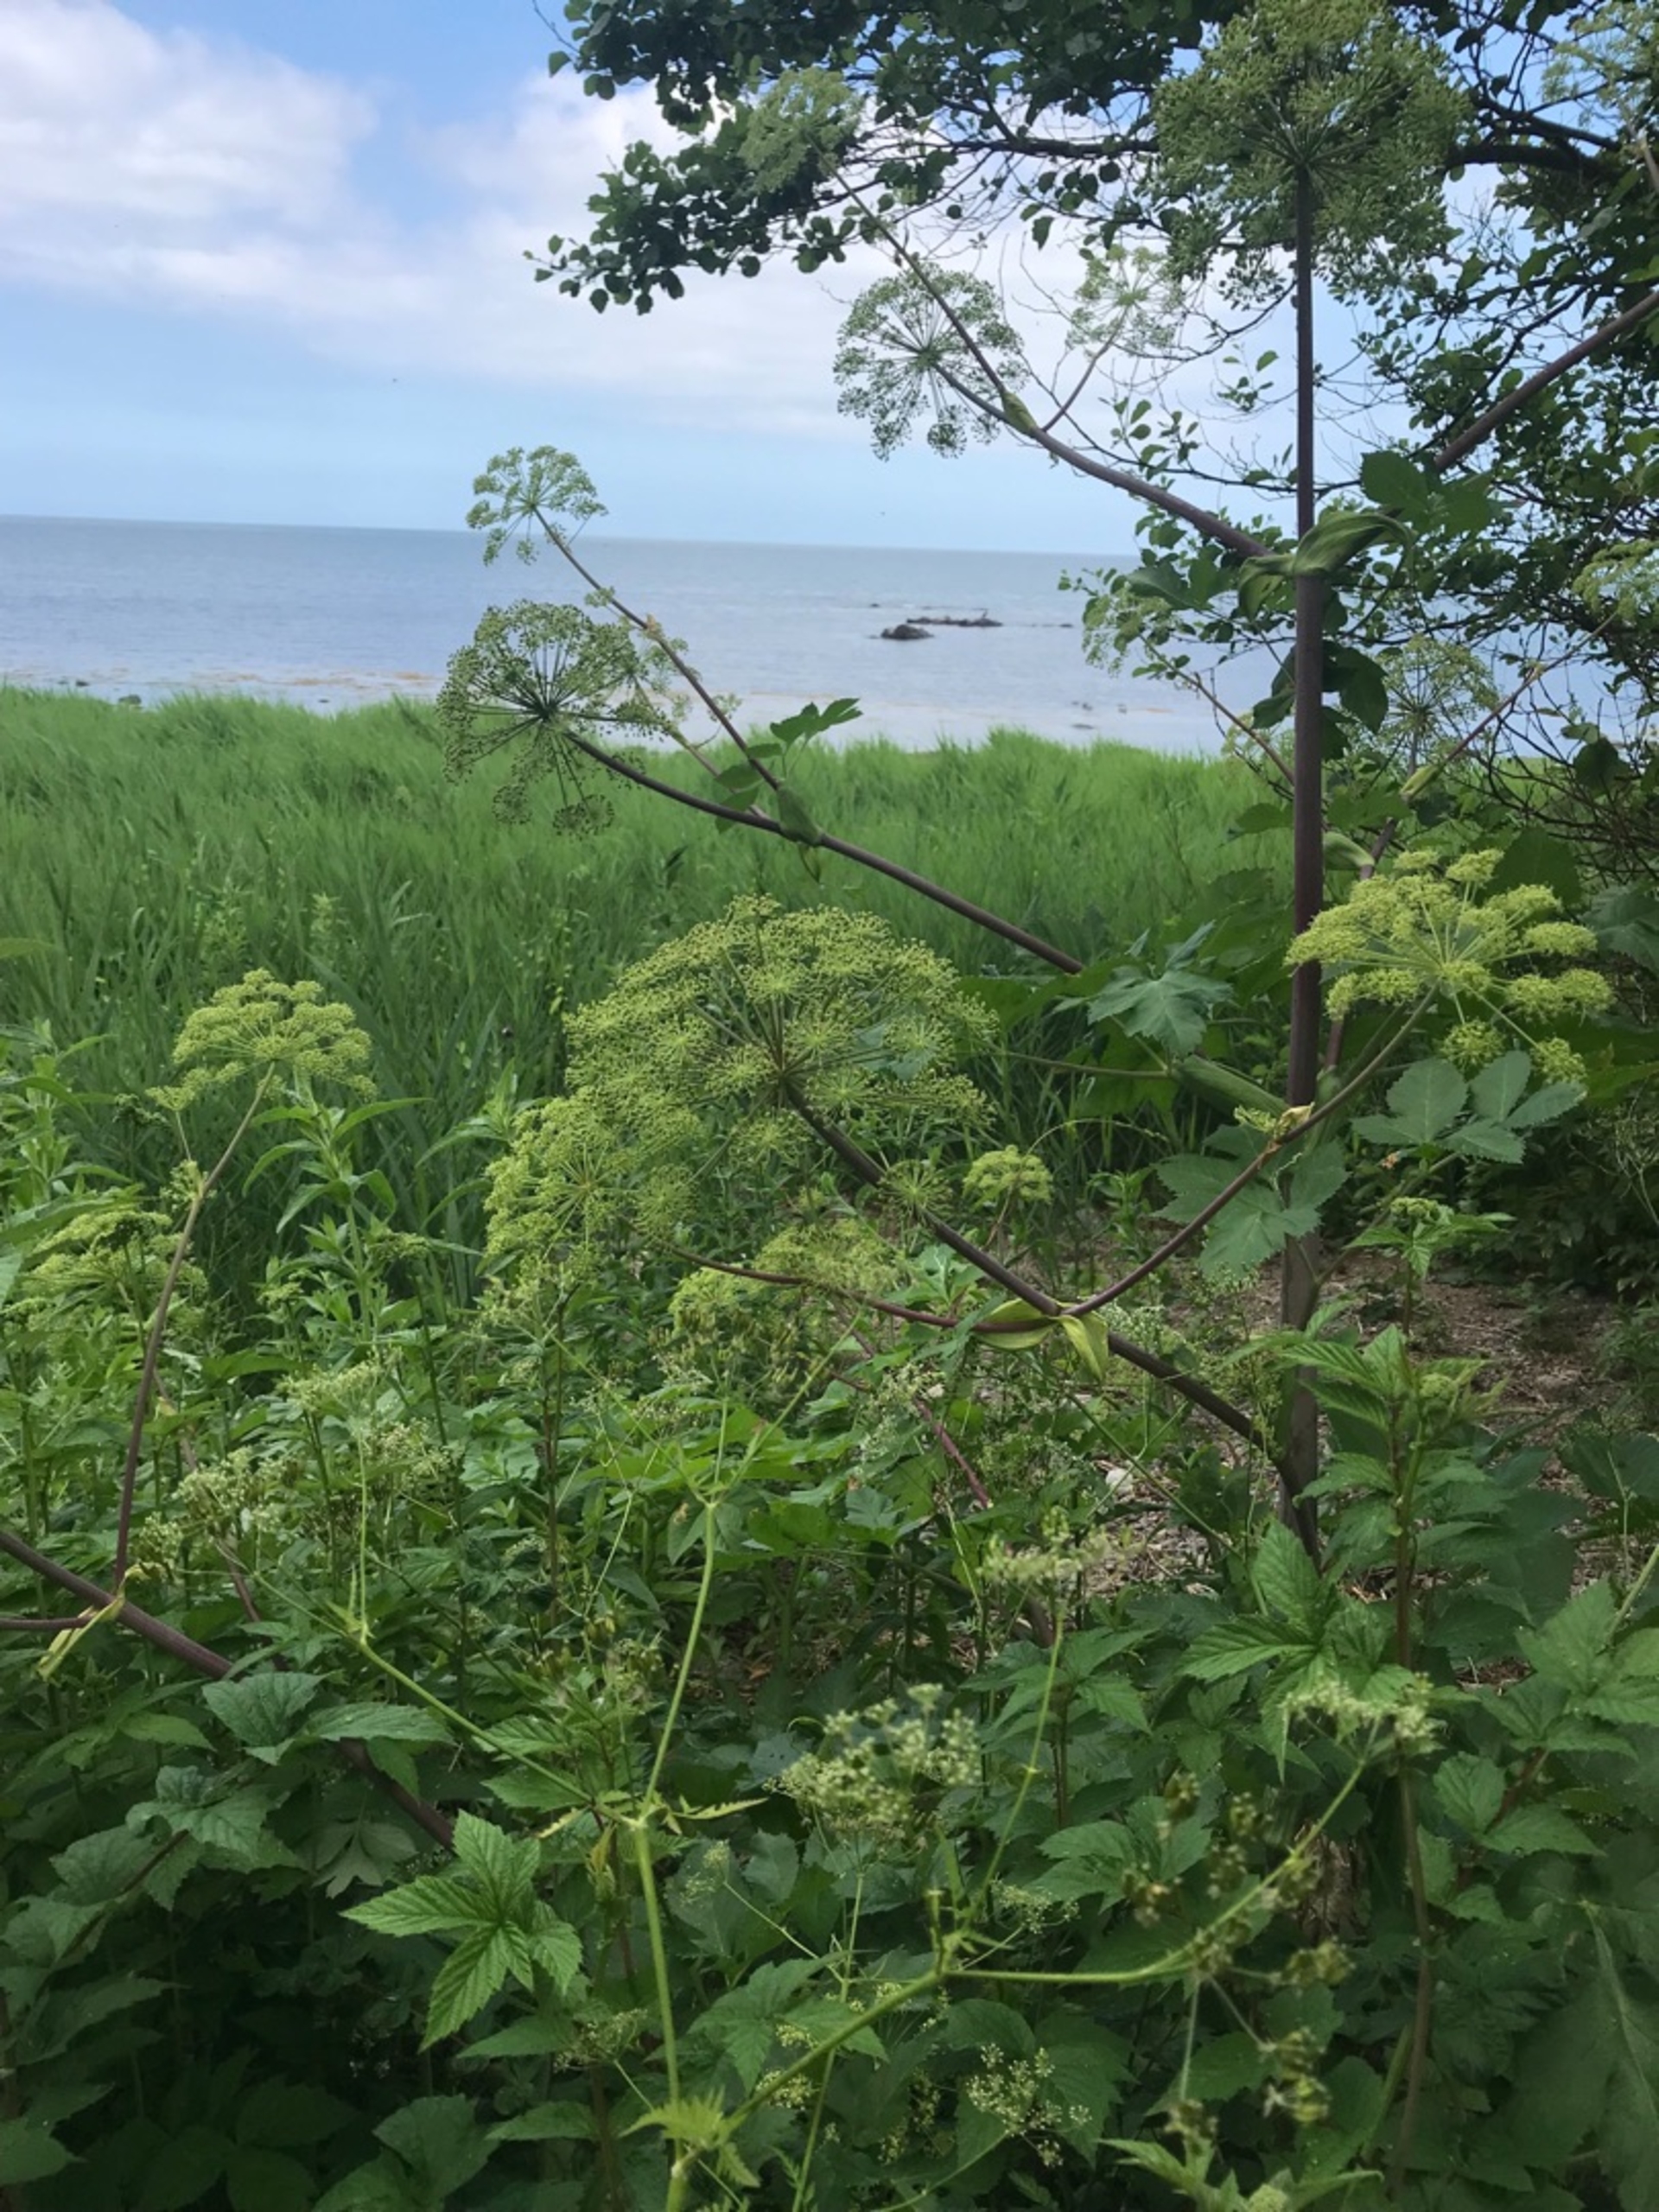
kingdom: Plantae
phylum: Tracheophyta
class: Magnoliopsida
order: Apiales
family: Apiaceae
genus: Angelica
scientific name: Angelica archangelica
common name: Kvan
